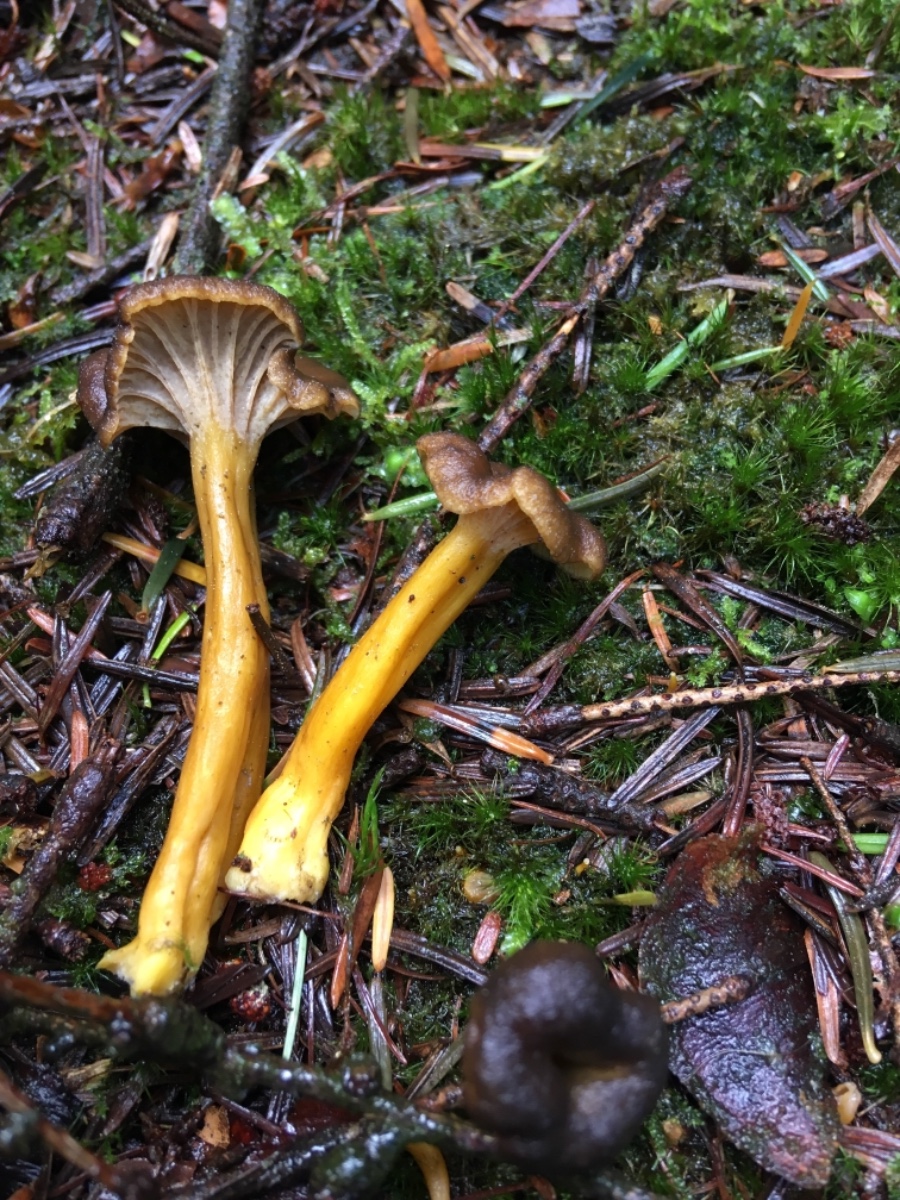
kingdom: Fungi
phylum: Basidiomycota
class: Agaricomycetes
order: Cantharellales
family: Hydnaceae
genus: Craterellus
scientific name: Craterellus tubaeformis
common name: tragt-kantarel
